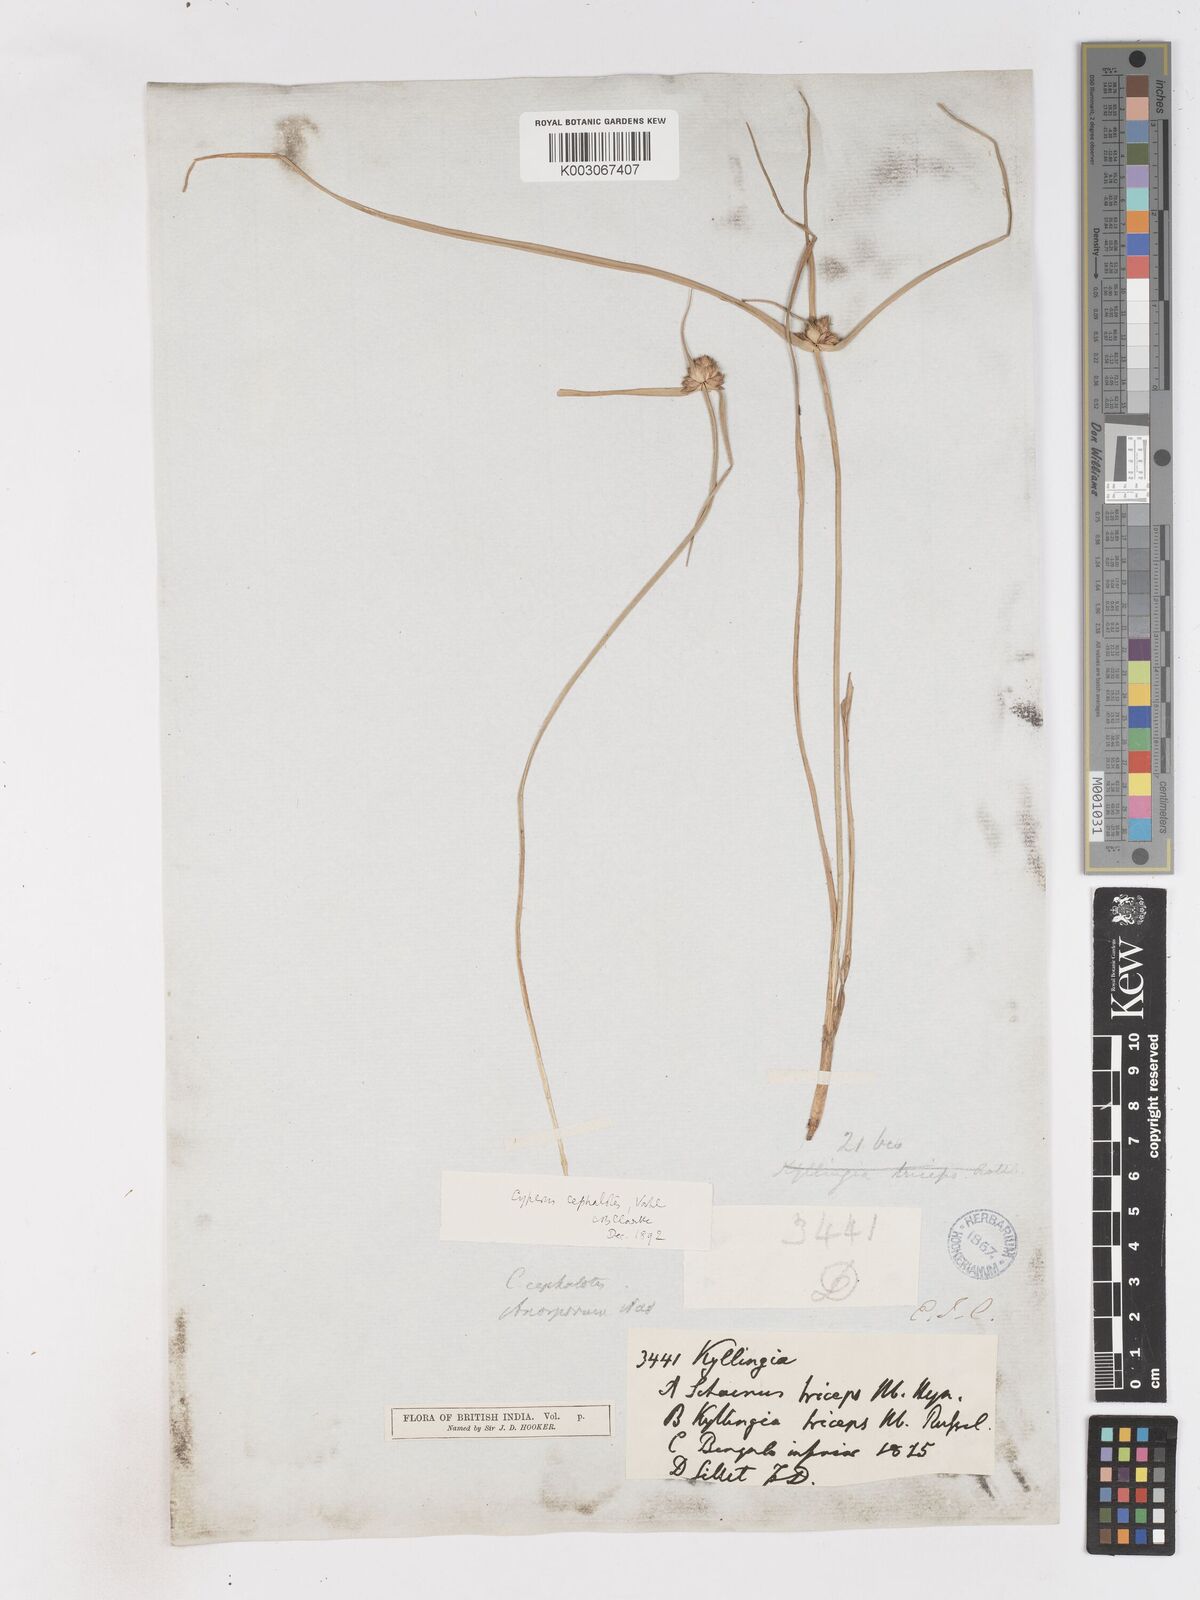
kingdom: Plantae
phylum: Tracheophyta
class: Liliopsida
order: Poales
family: Cyperaceae
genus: Cyperus
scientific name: Cyperus cephalotes
